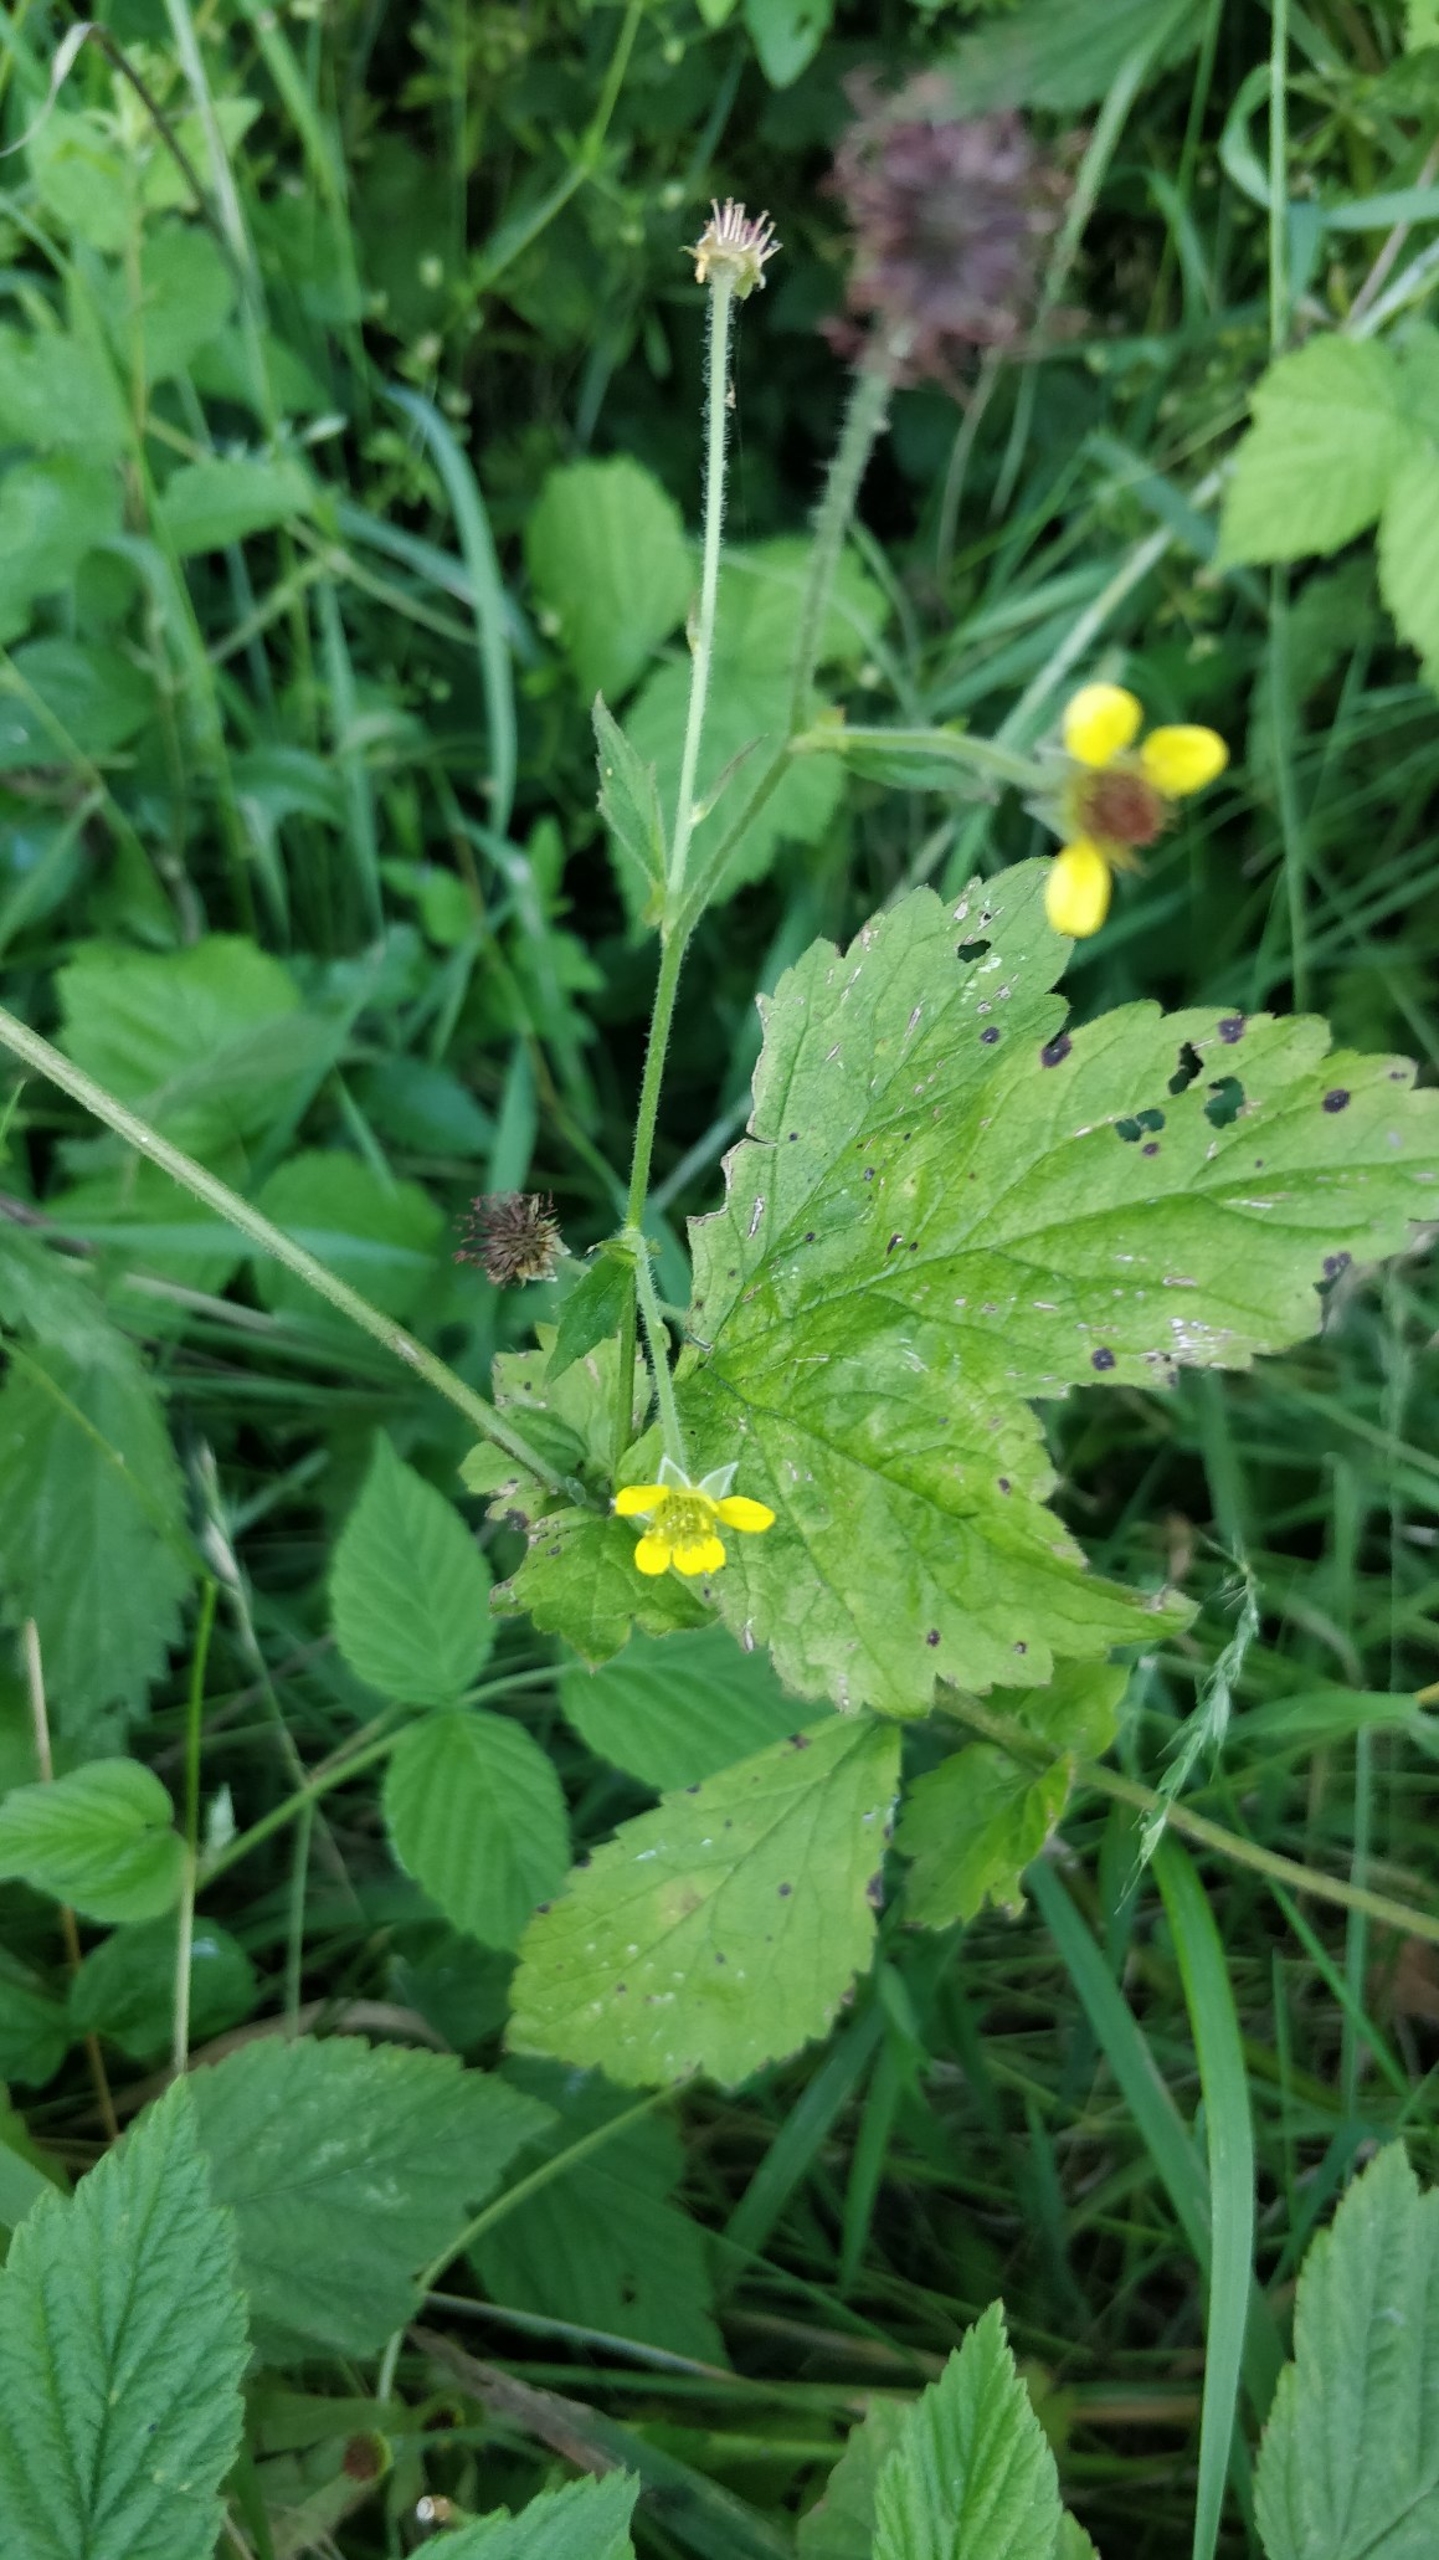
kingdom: Plantae
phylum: Tracheophyta
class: Magnoliopsida
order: Rosales
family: Rosaceae
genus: Geum
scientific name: Geum urbanum
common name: Feber-nellikerod
